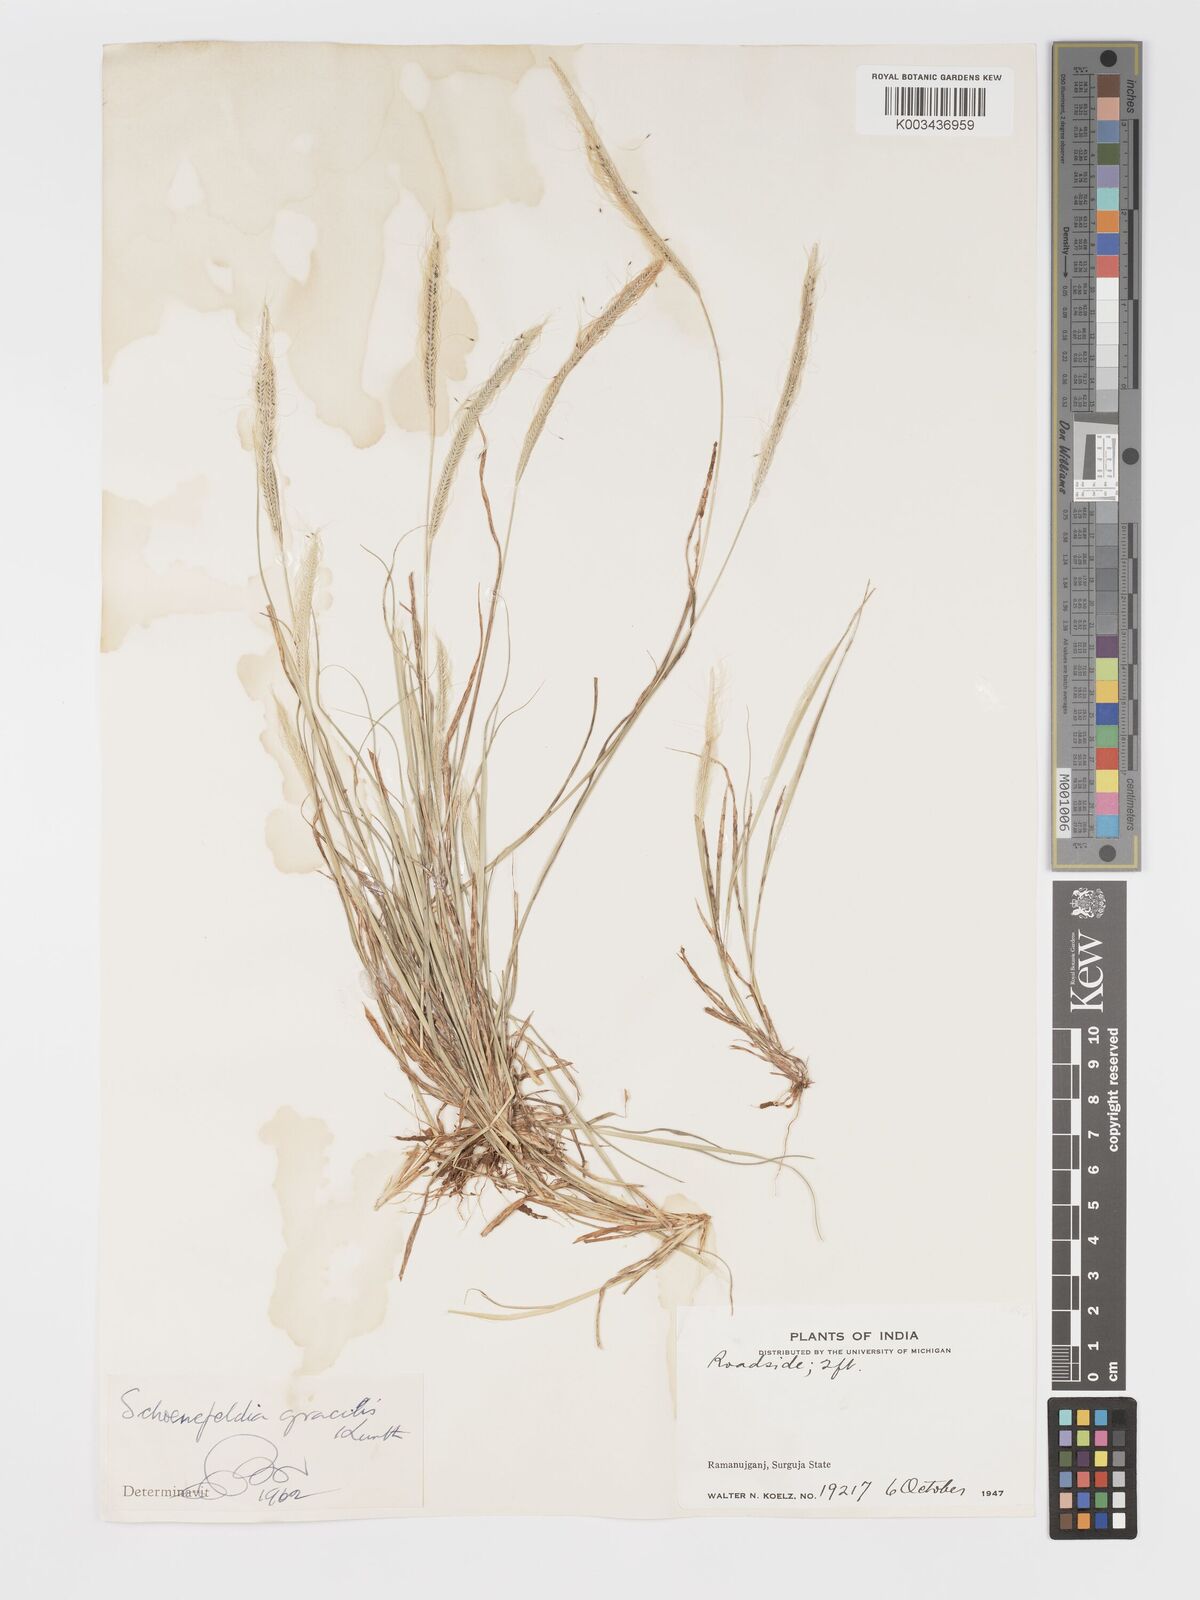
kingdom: Plantae
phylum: Tracheophyta
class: Liliopsida
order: Poales
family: Poaceae
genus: Schoenefeldia
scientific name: Schoenefeldia gracilis
